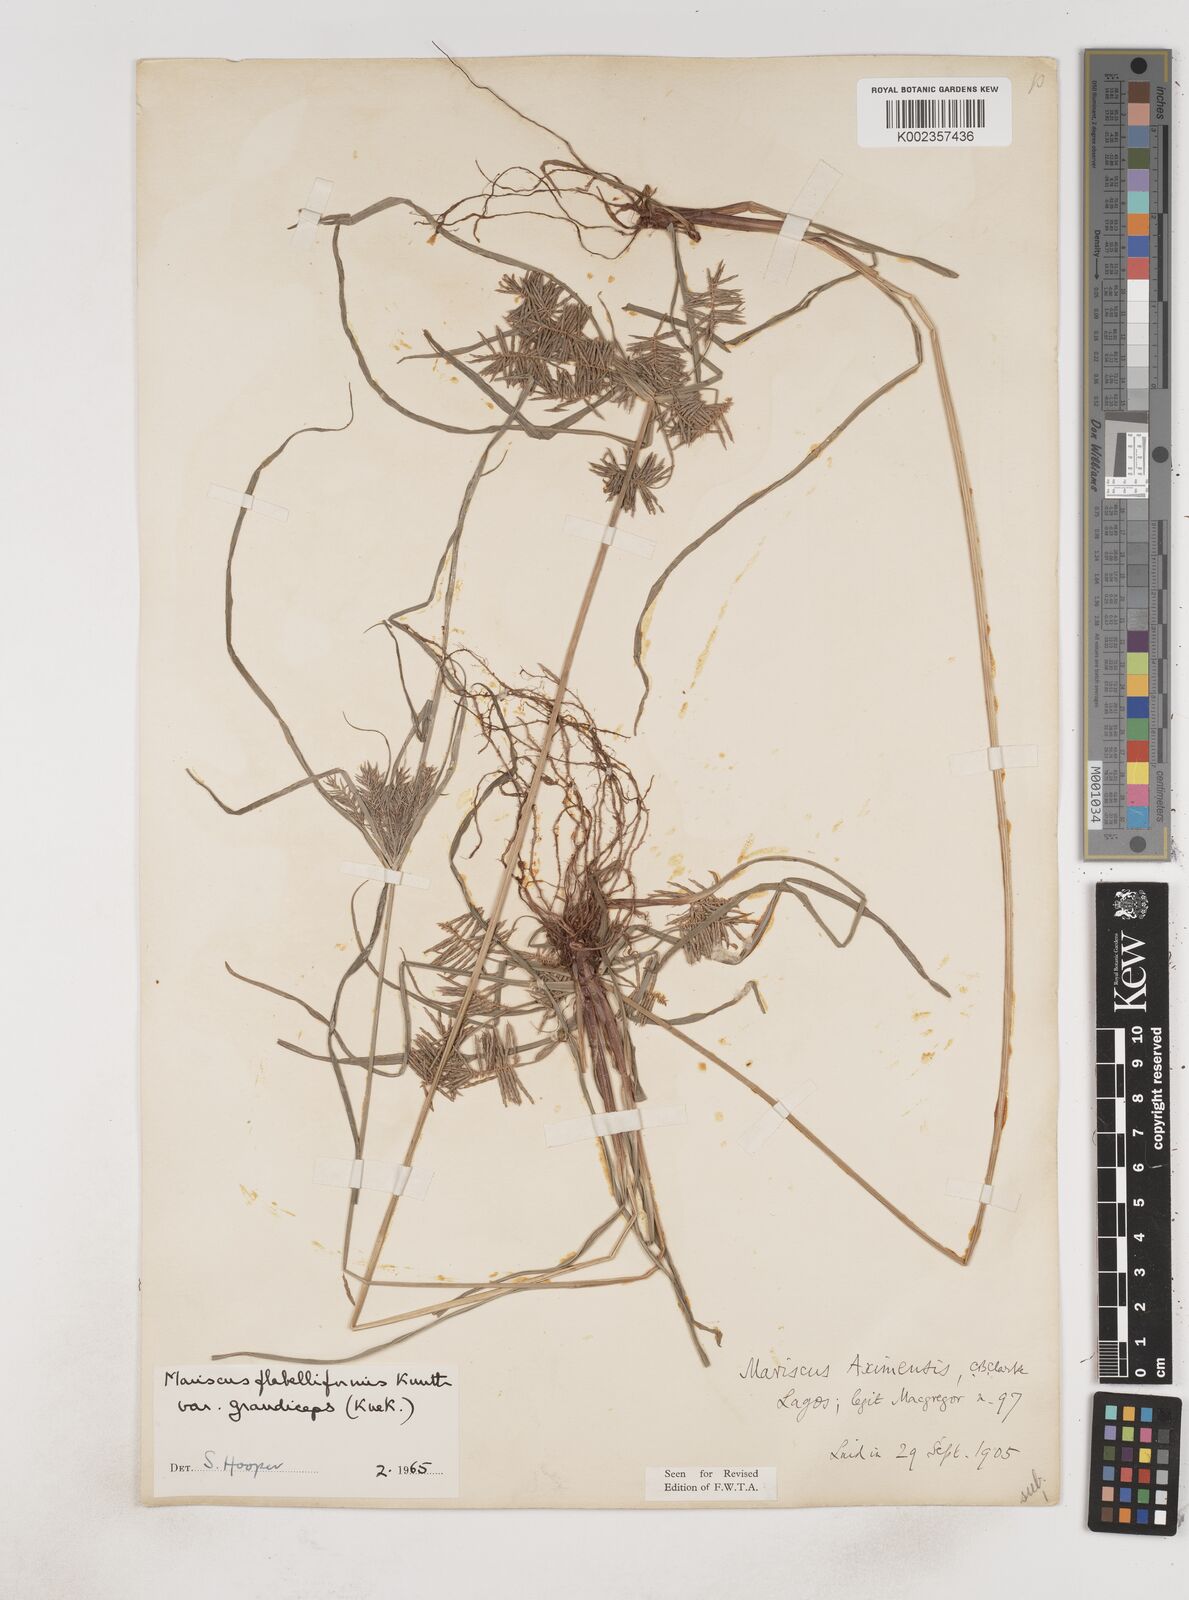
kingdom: Plantae
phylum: Tracheophyta
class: Liliopsida
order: Poales
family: Cyperaceae
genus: Cyperus
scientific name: Cyperus tenuis
